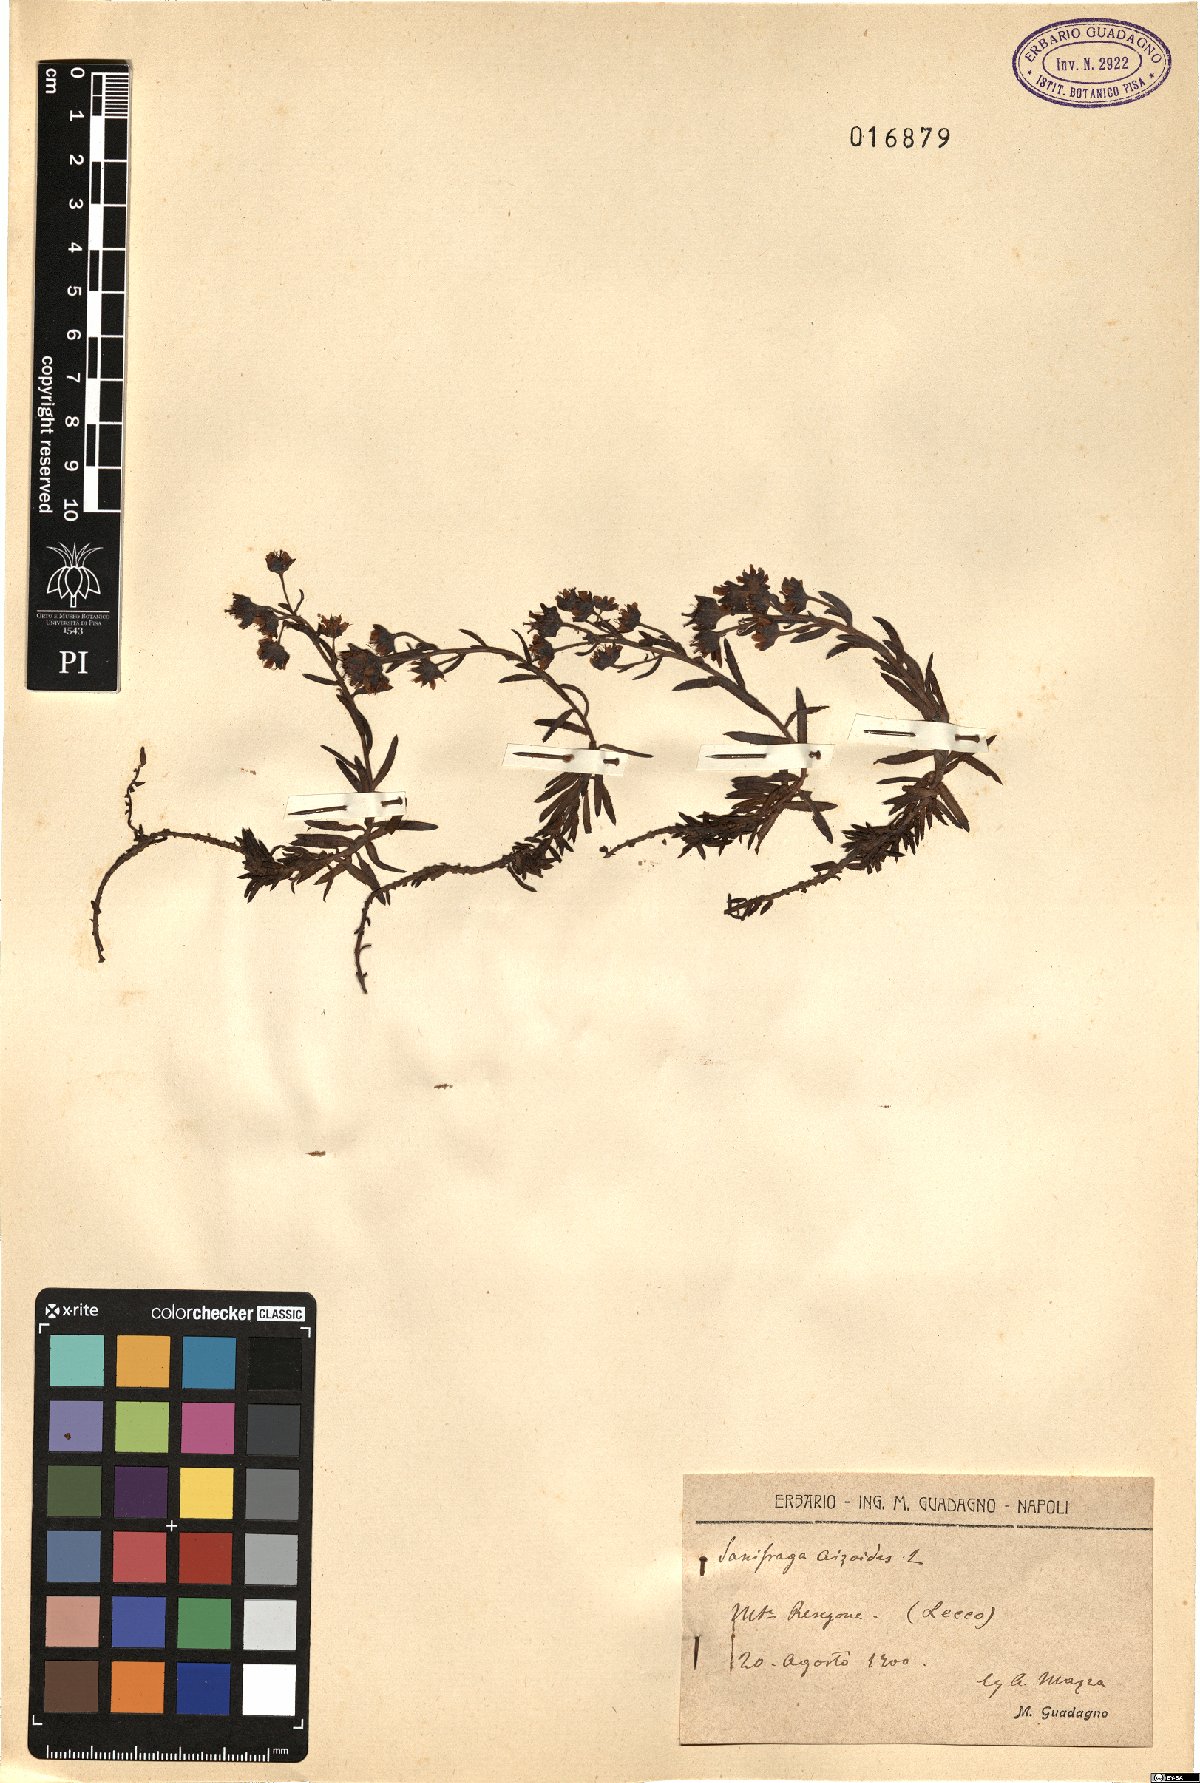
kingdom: Plantae
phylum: Tracheophyta
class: Magnoliopsida
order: Saxifragales
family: Saxifragaceae
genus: Saxifraga
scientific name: Saxifraga aizoides
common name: Yellow mountain saxifrage
